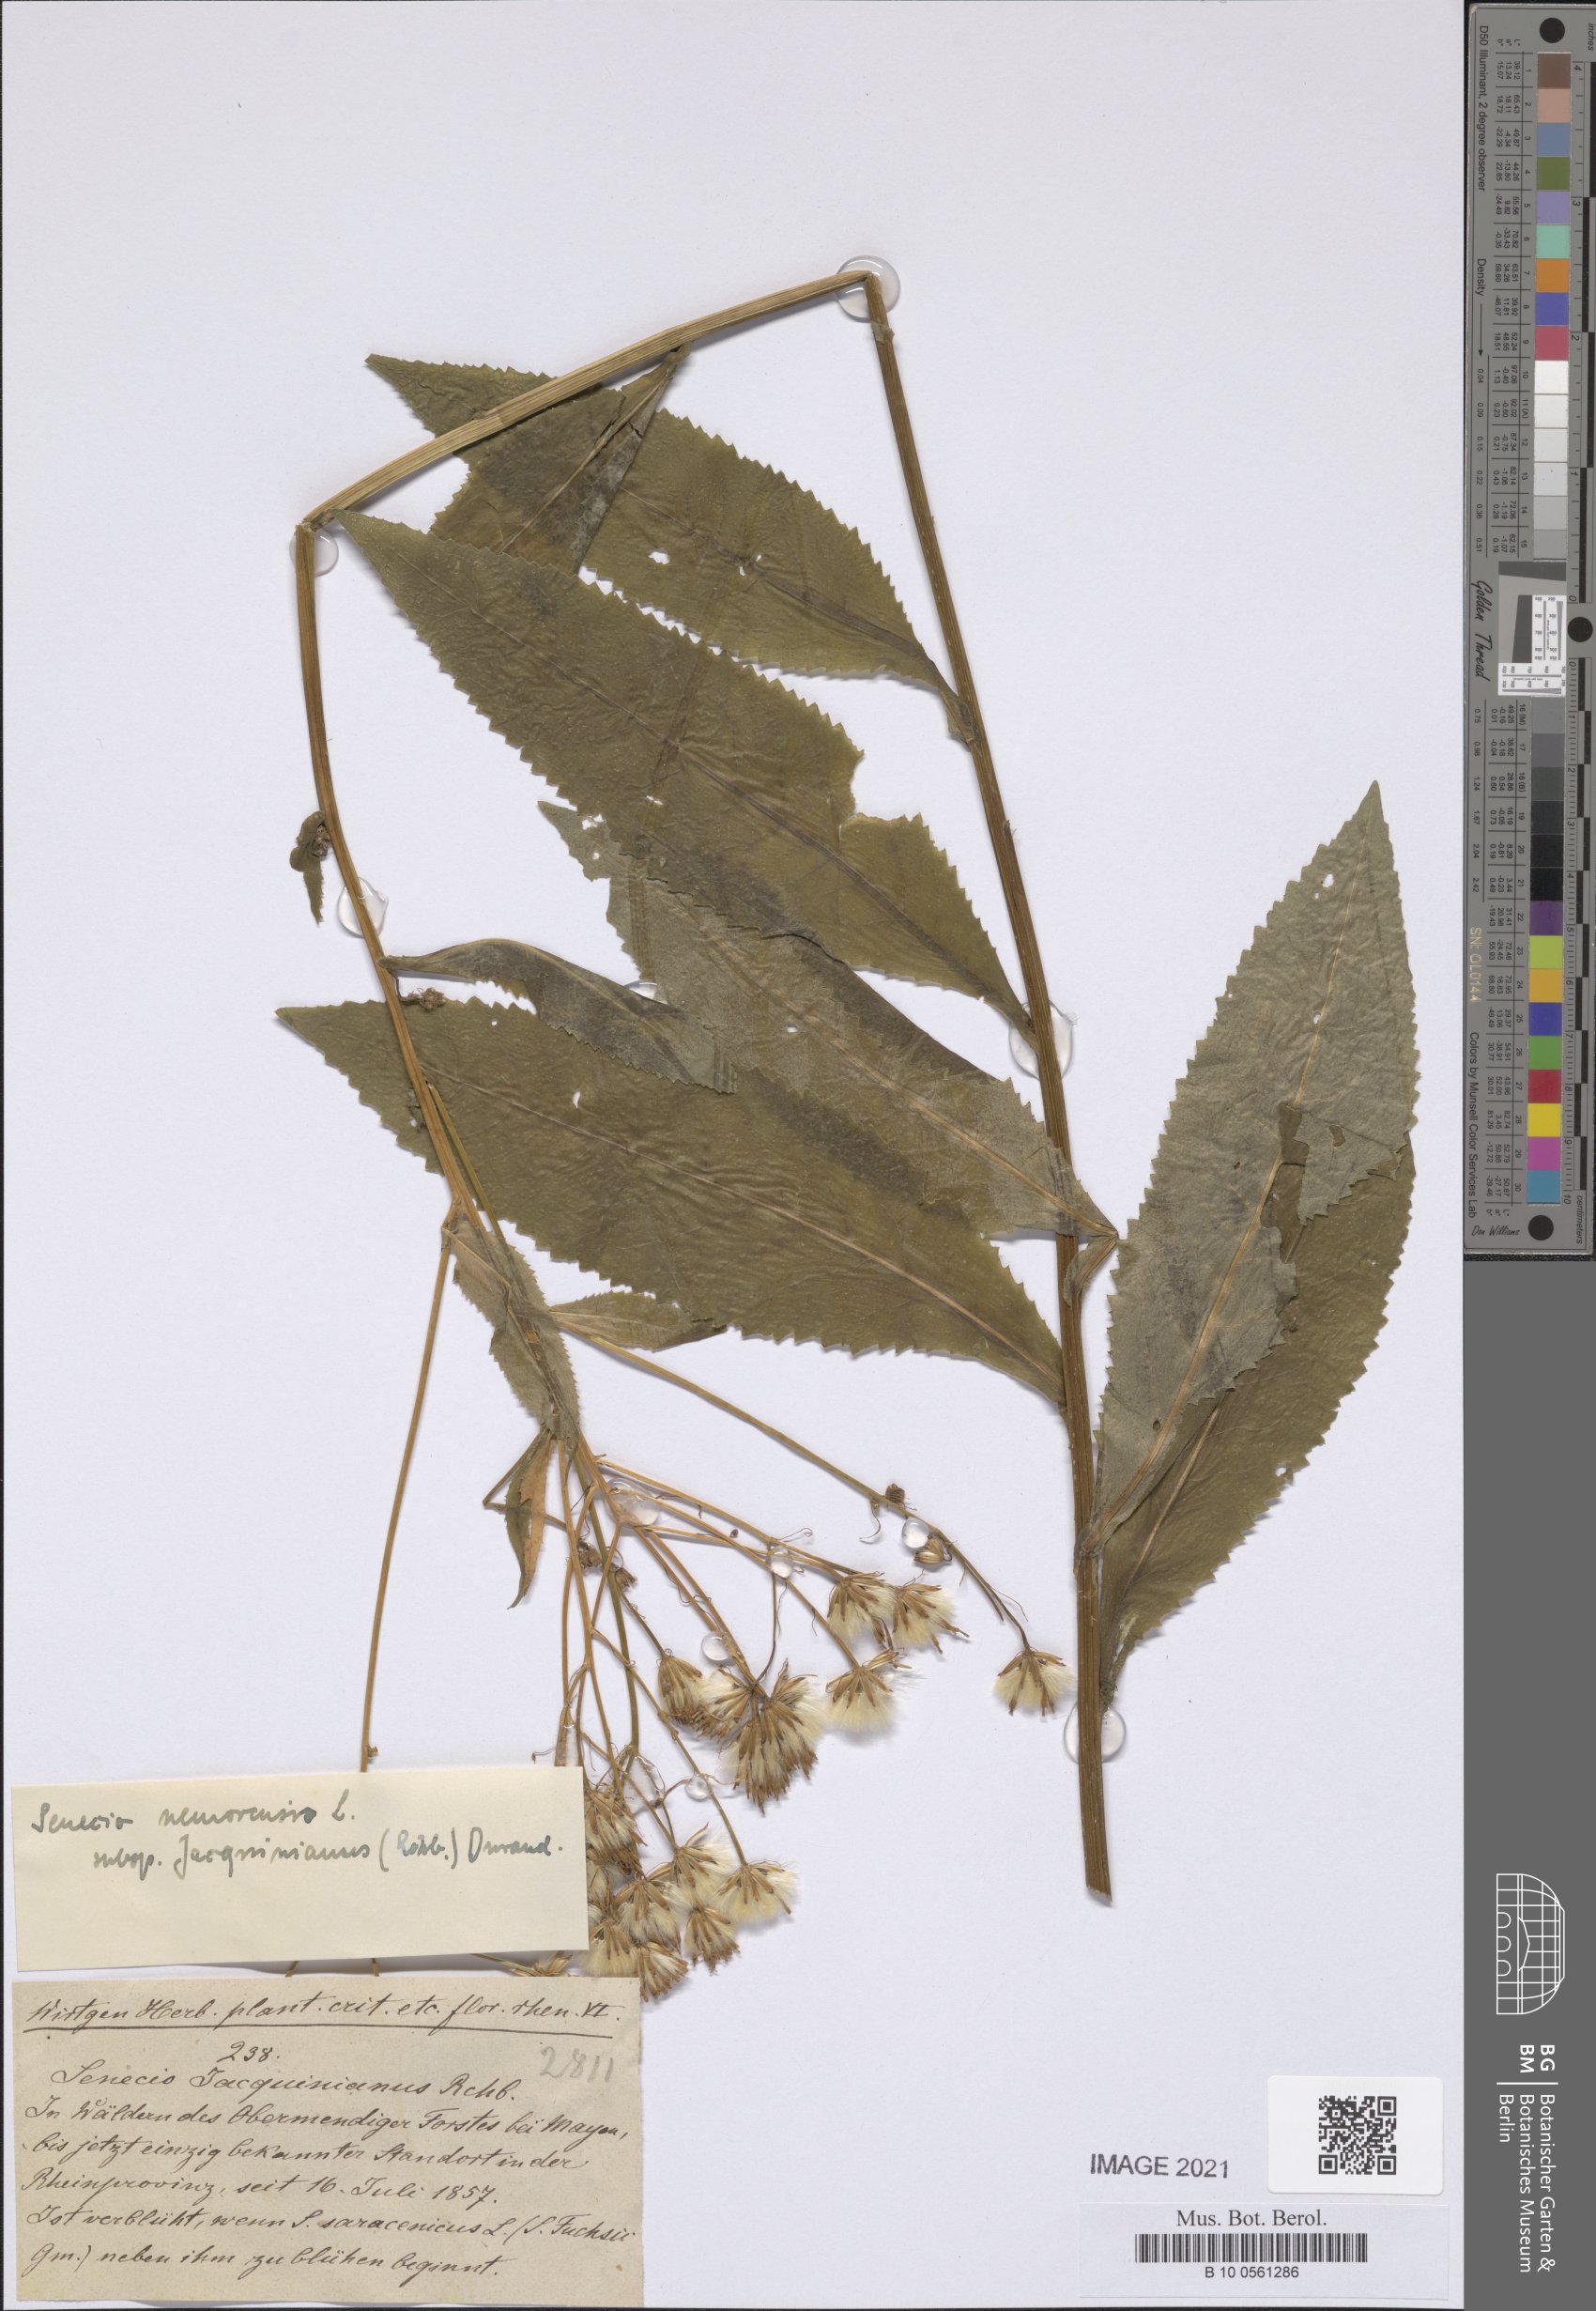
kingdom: Plantae
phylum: Tracheophyta
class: Magnoliopsida
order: Asterales
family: Asteraceae
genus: Senecio
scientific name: Senecio germanicus
